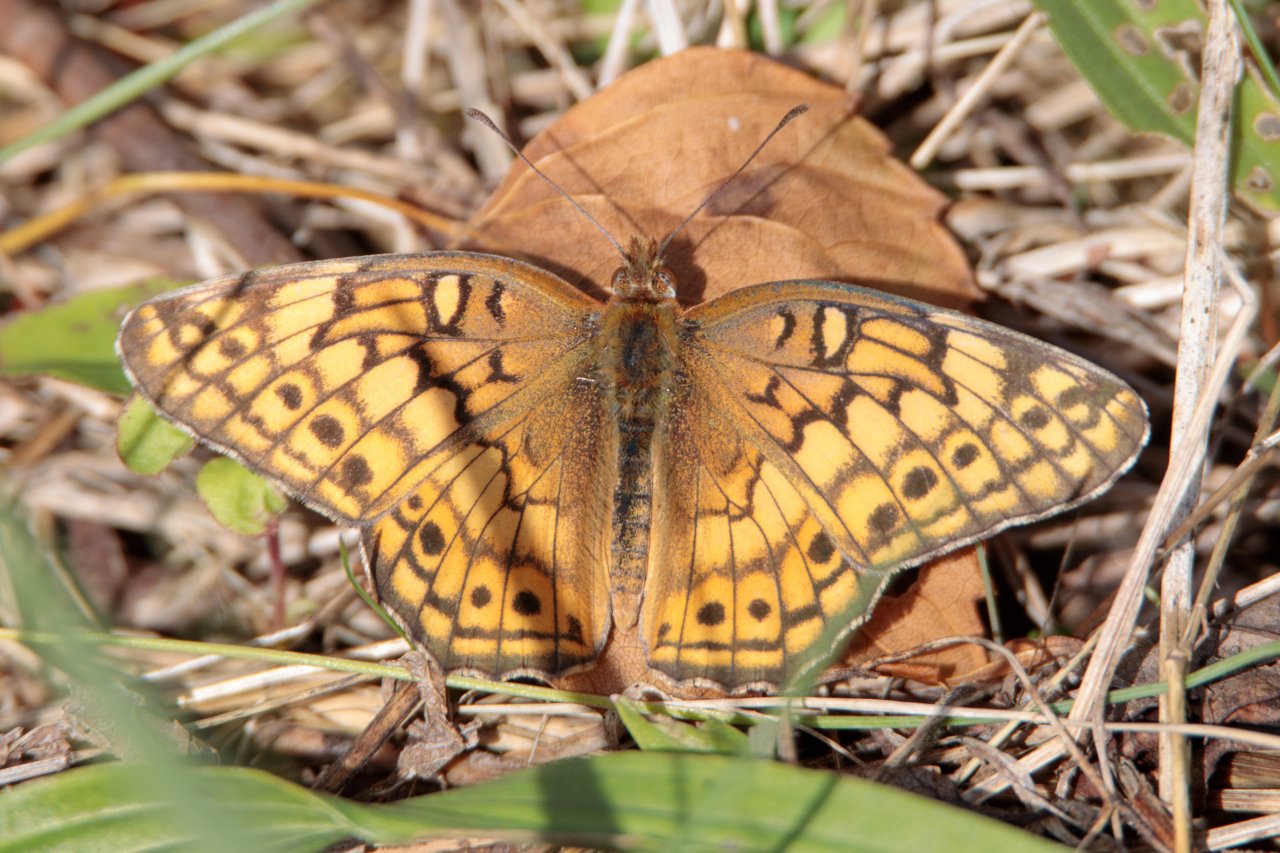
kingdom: Animalia
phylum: Arthropoda
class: Insecta
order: Lepidoptera
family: Nymphalidae
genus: Euptoieta
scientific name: Euptoieta claudia
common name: Variegated Fritillary
